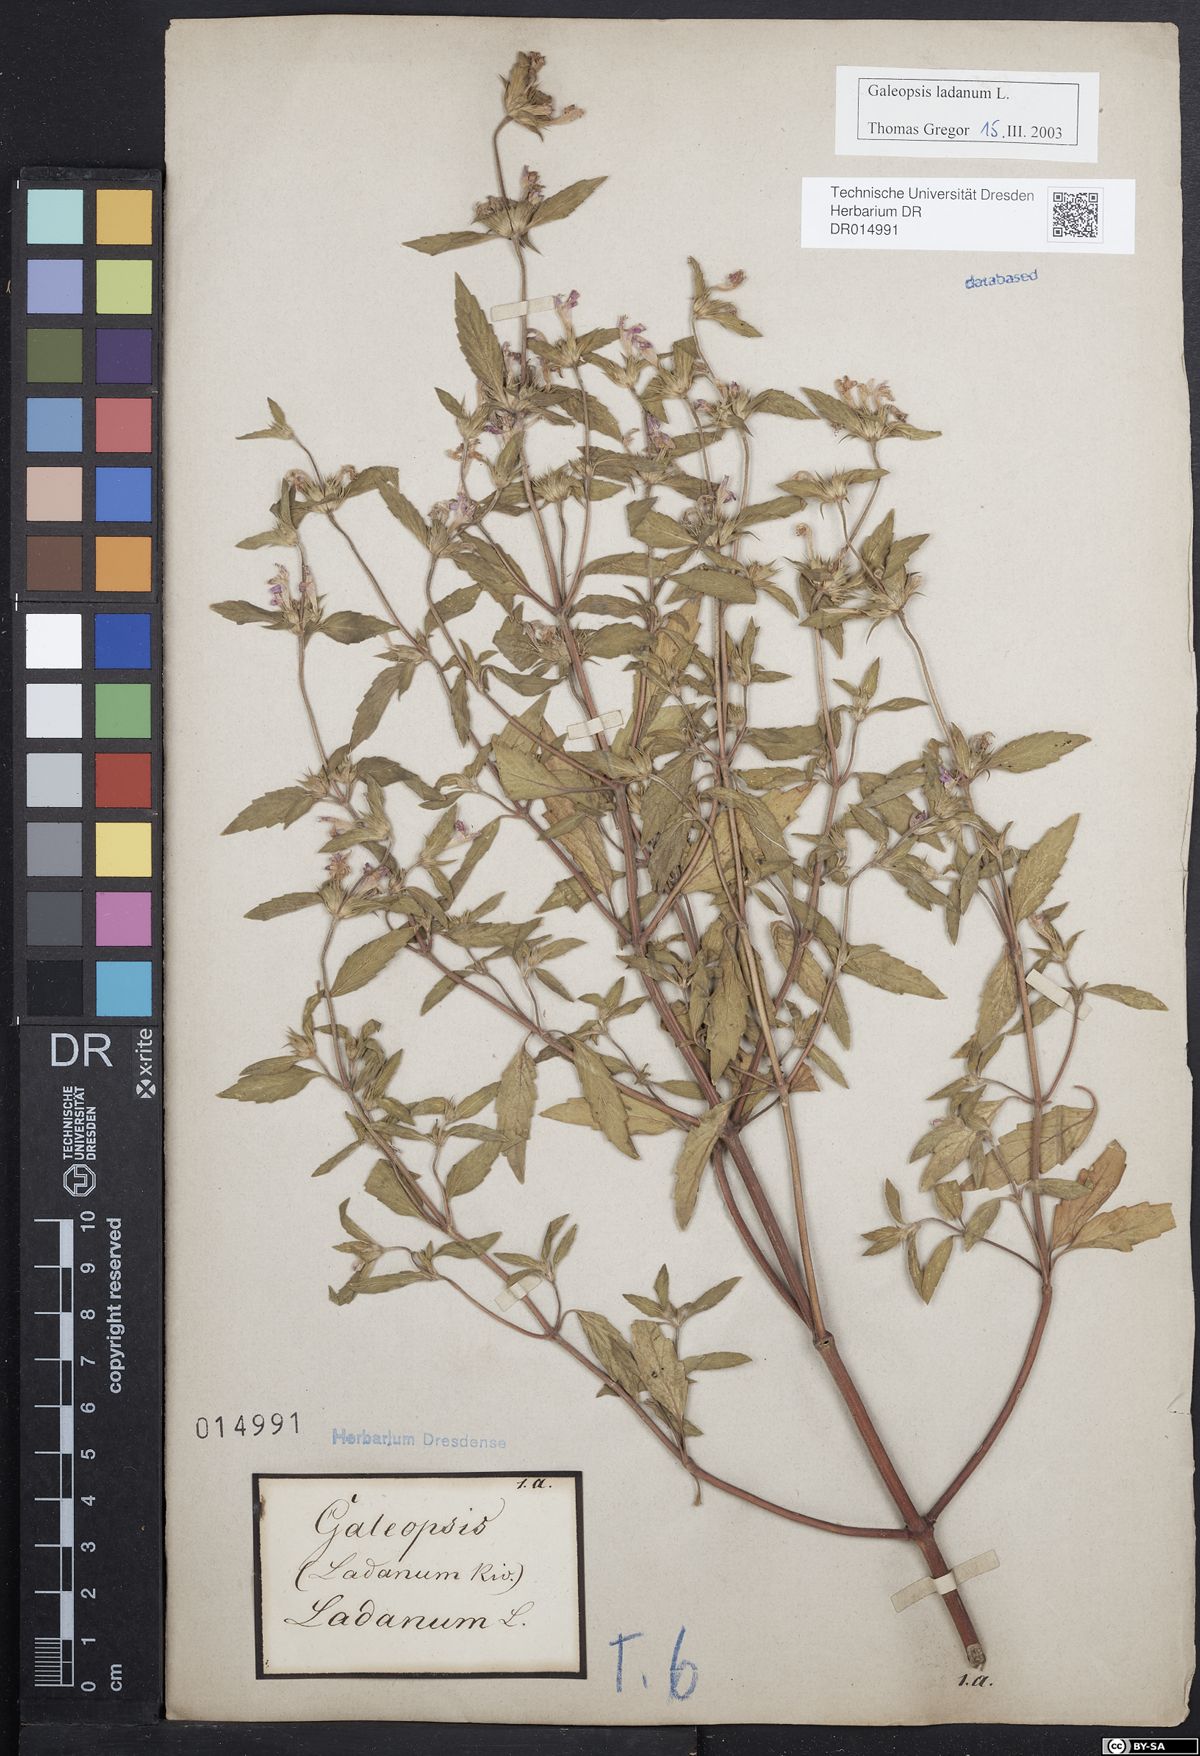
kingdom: Plantae
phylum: Tracheophyta
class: Magnoliopsida
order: Lamiales
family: Lamiaceae
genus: Galeopsis
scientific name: Galeopsis ladanum
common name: Broad-leaved hemp-nettle
